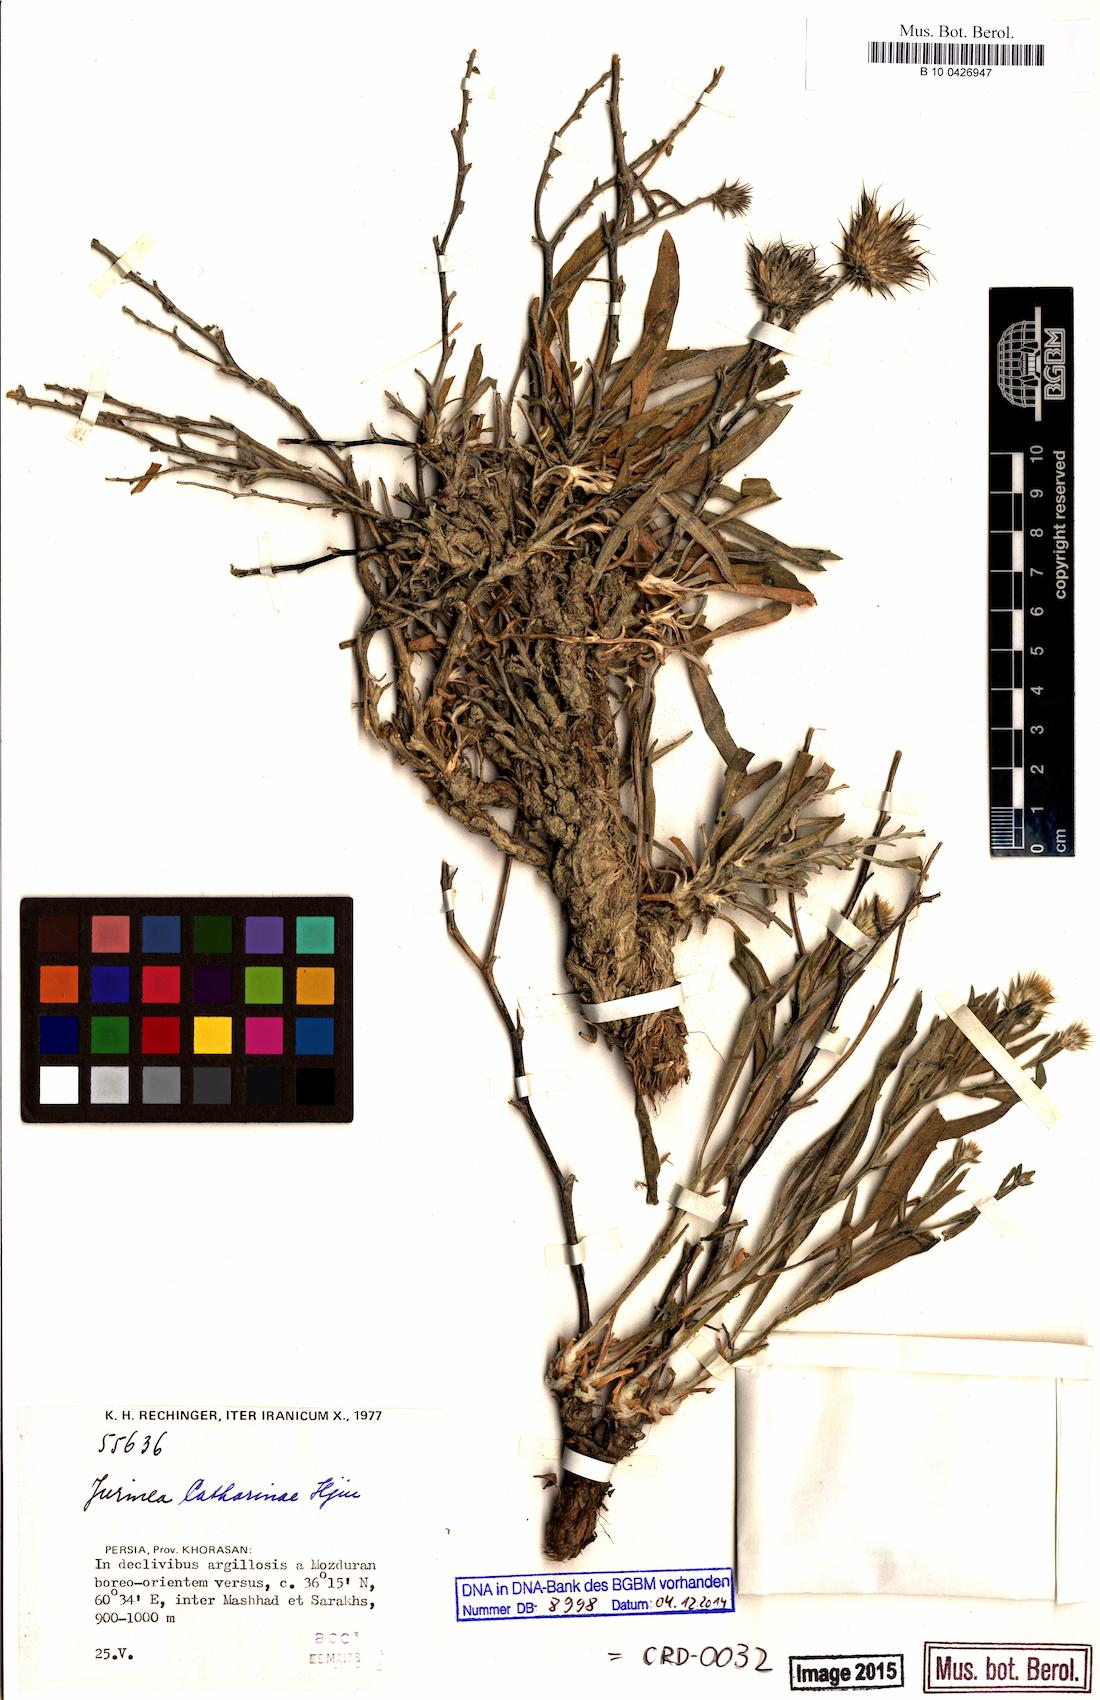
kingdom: Plantae
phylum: Tracheophyta
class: Magnoliopsida
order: Asterales
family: Asteraceae
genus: Jurinea
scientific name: Jurinea catharinae
